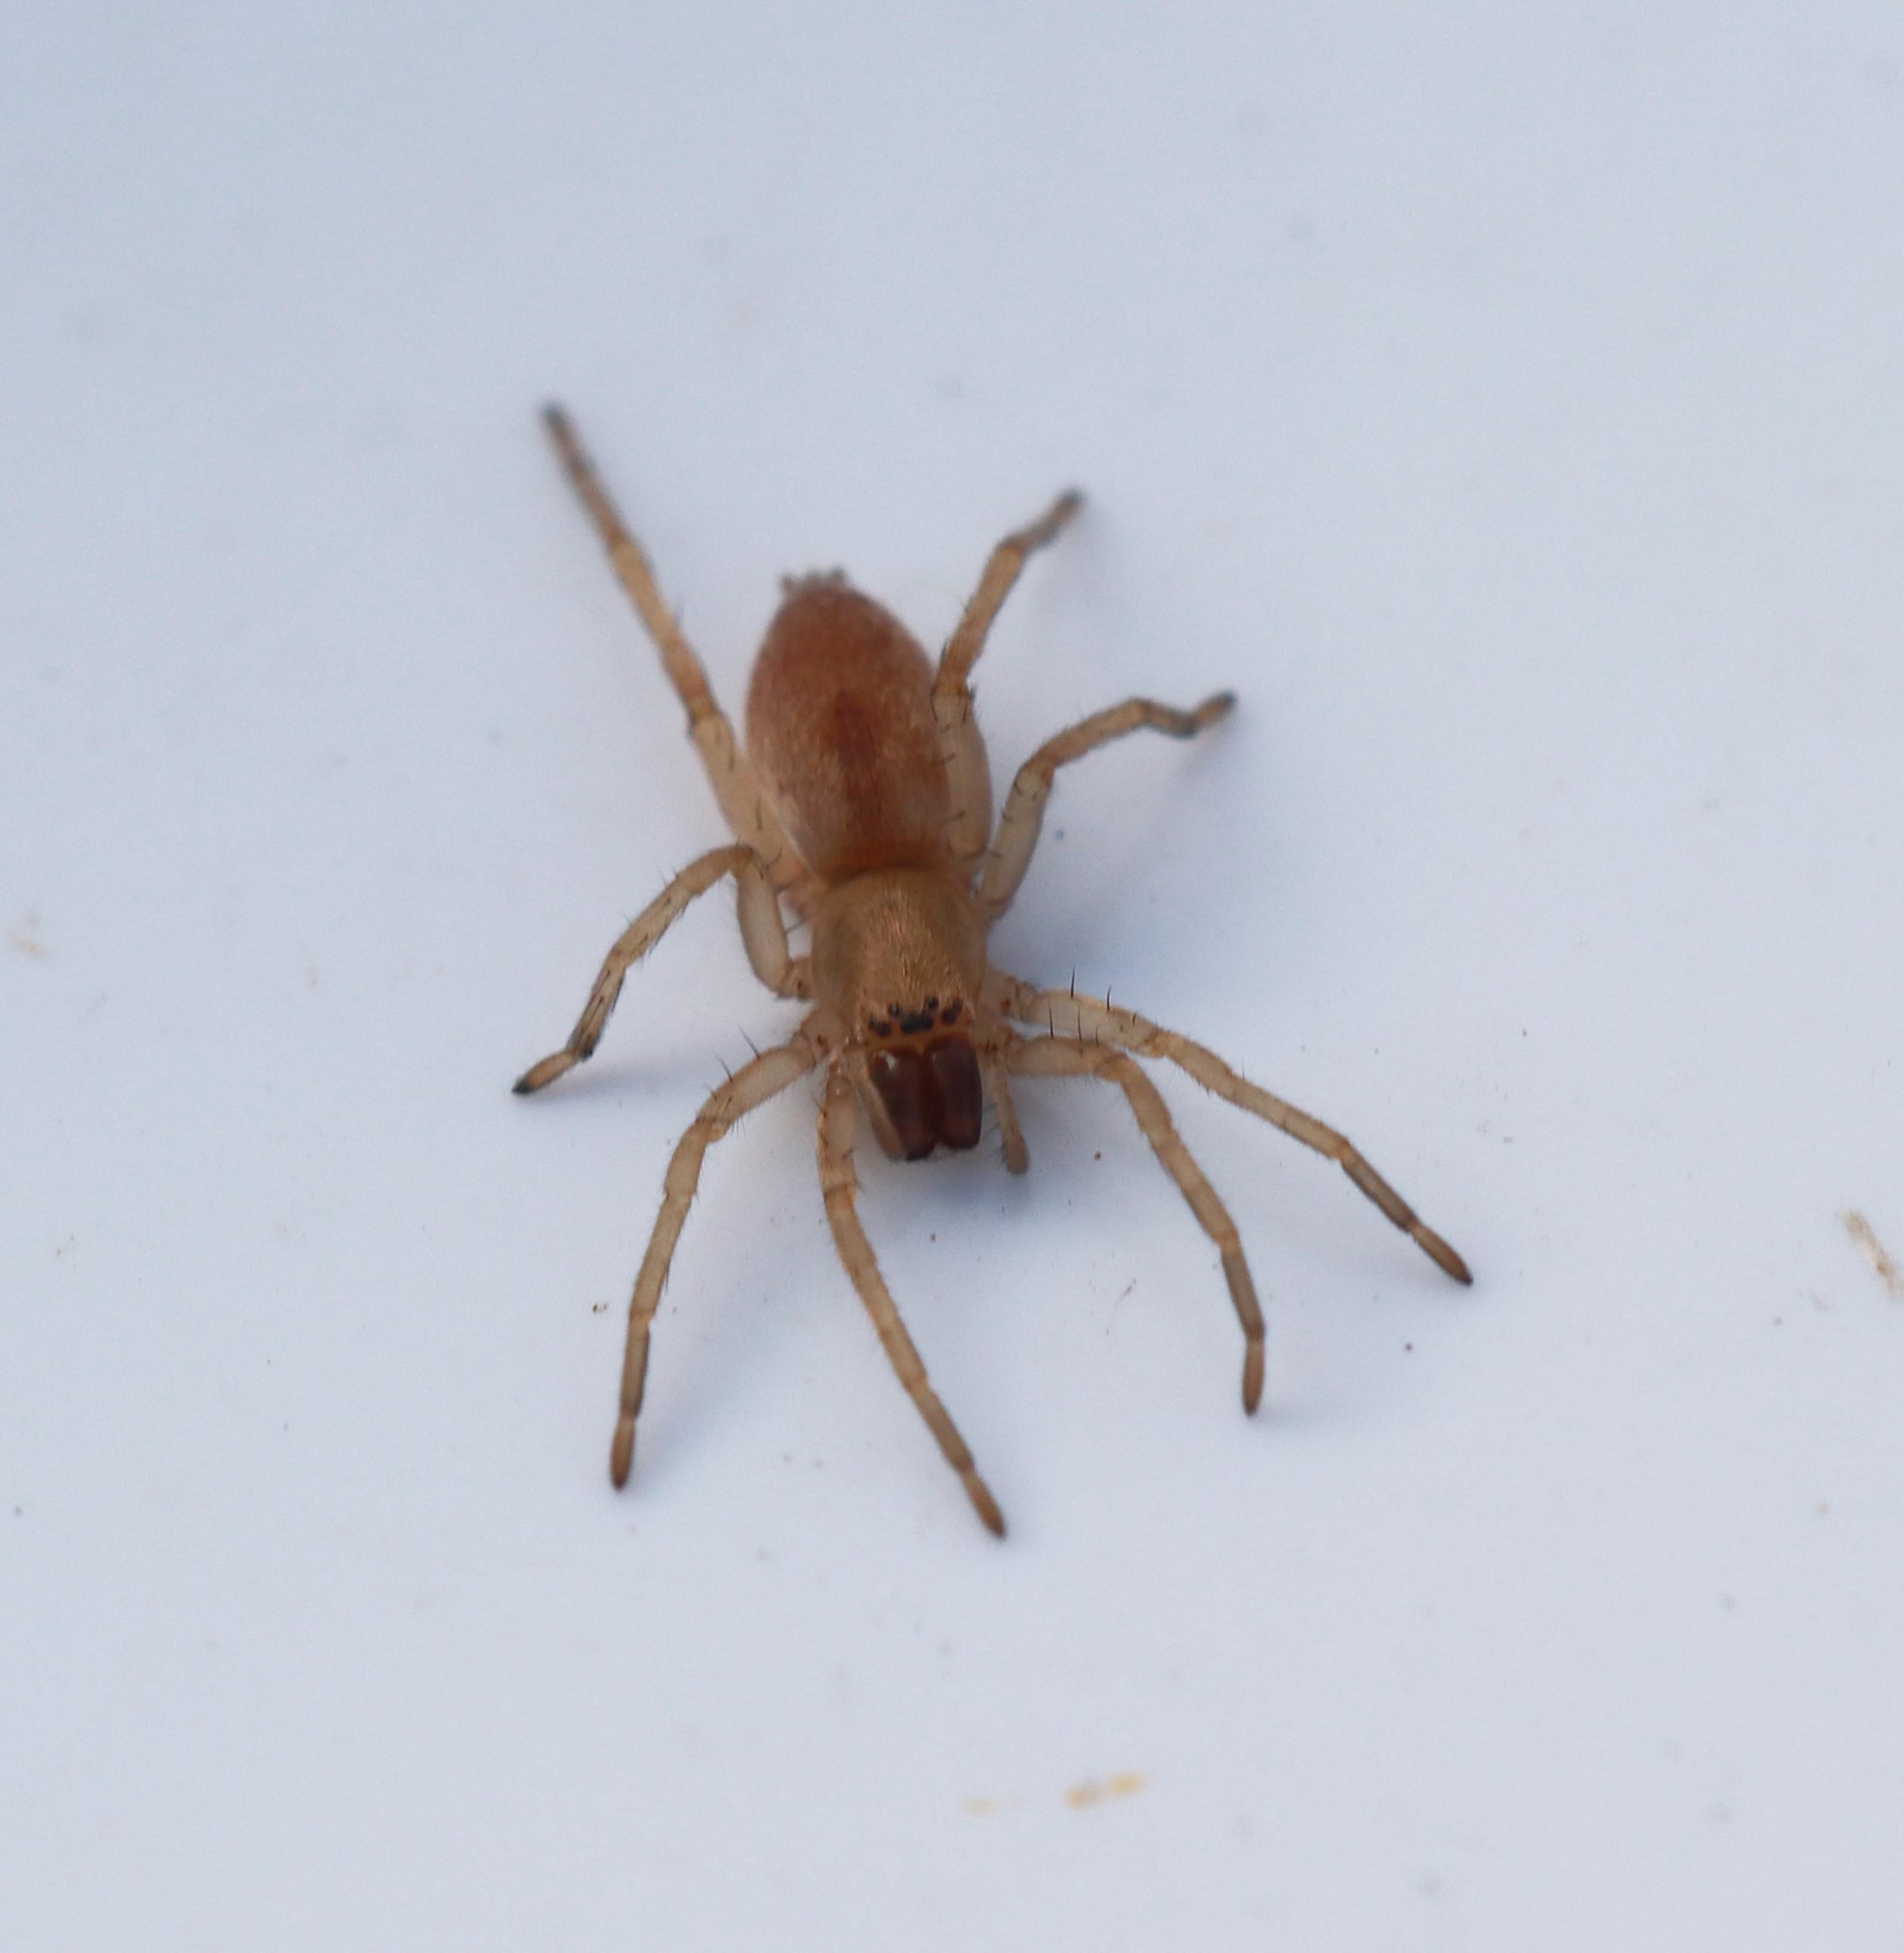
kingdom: Animalia
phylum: Arthropoda
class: Arachnida
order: Araneae
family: Clubionidae
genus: Clubiona
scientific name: Clubiona
